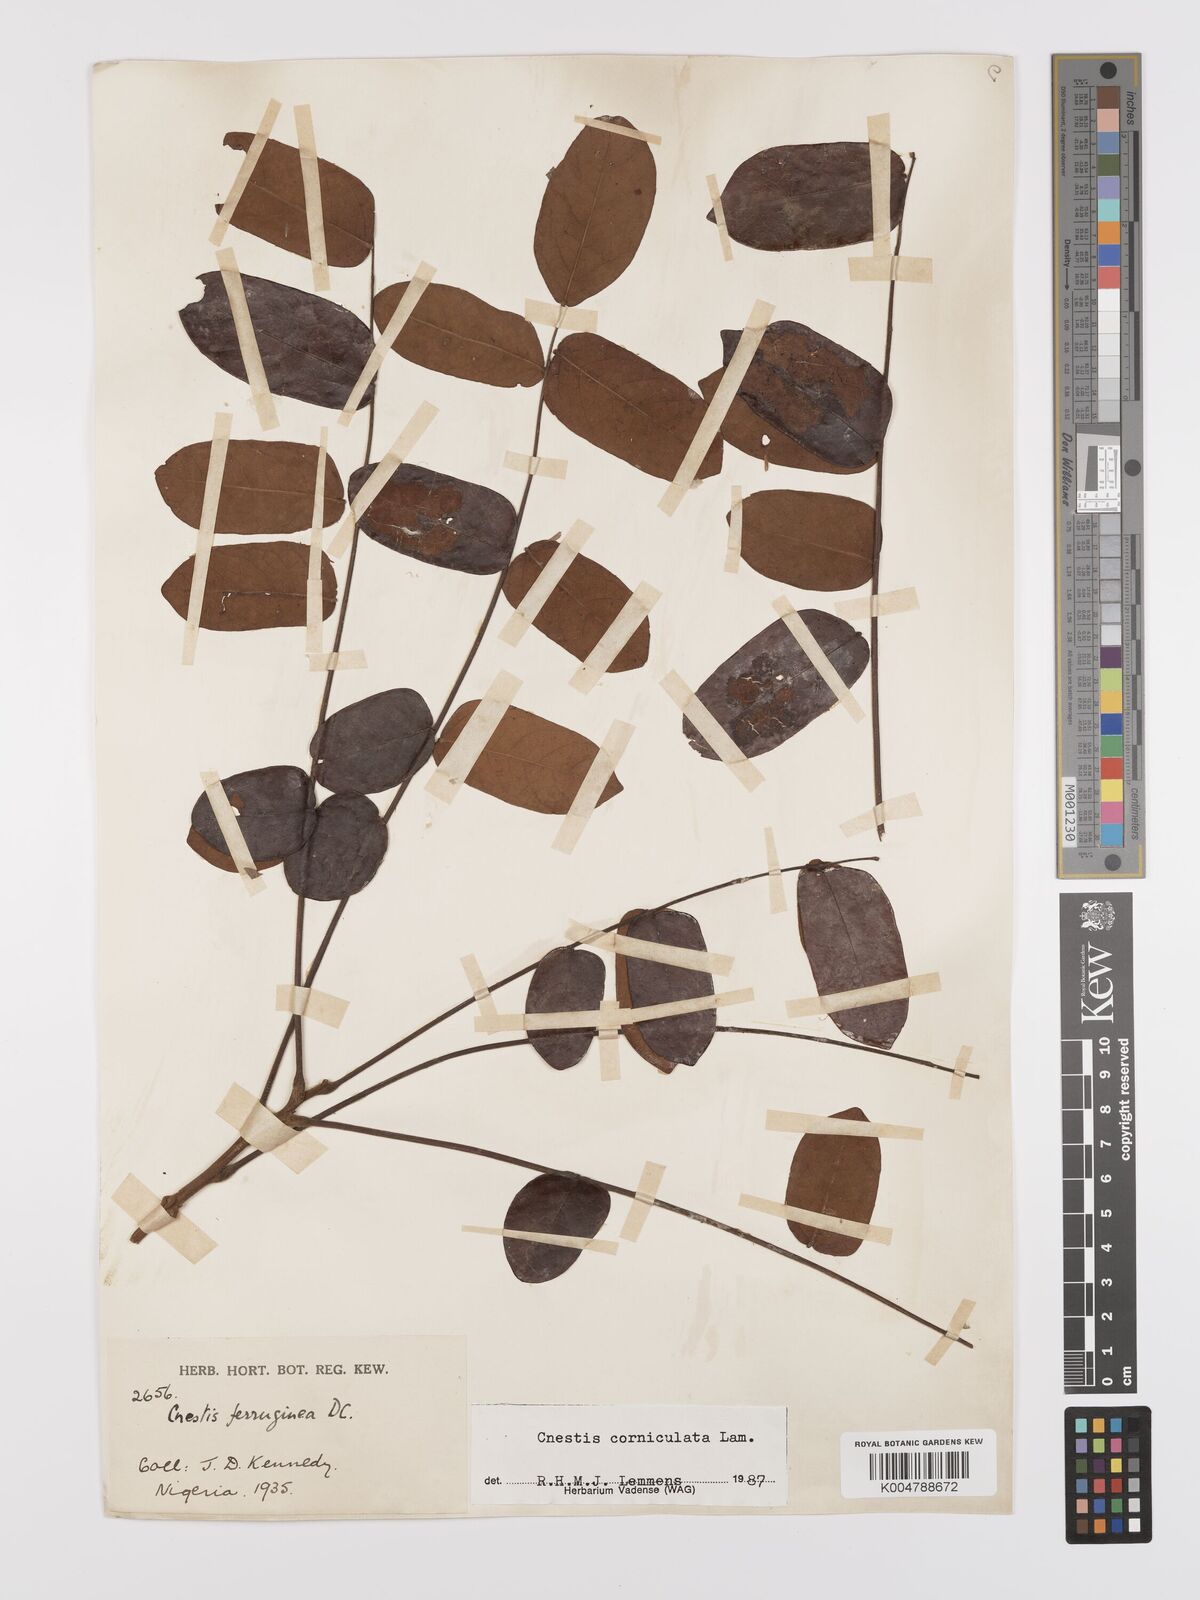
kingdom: Plantae
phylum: Tracheophyta
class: Magnoliopsida
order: Oxalidales
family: Connaraceae
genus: Cnestis
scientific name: Cnestis corniculata
